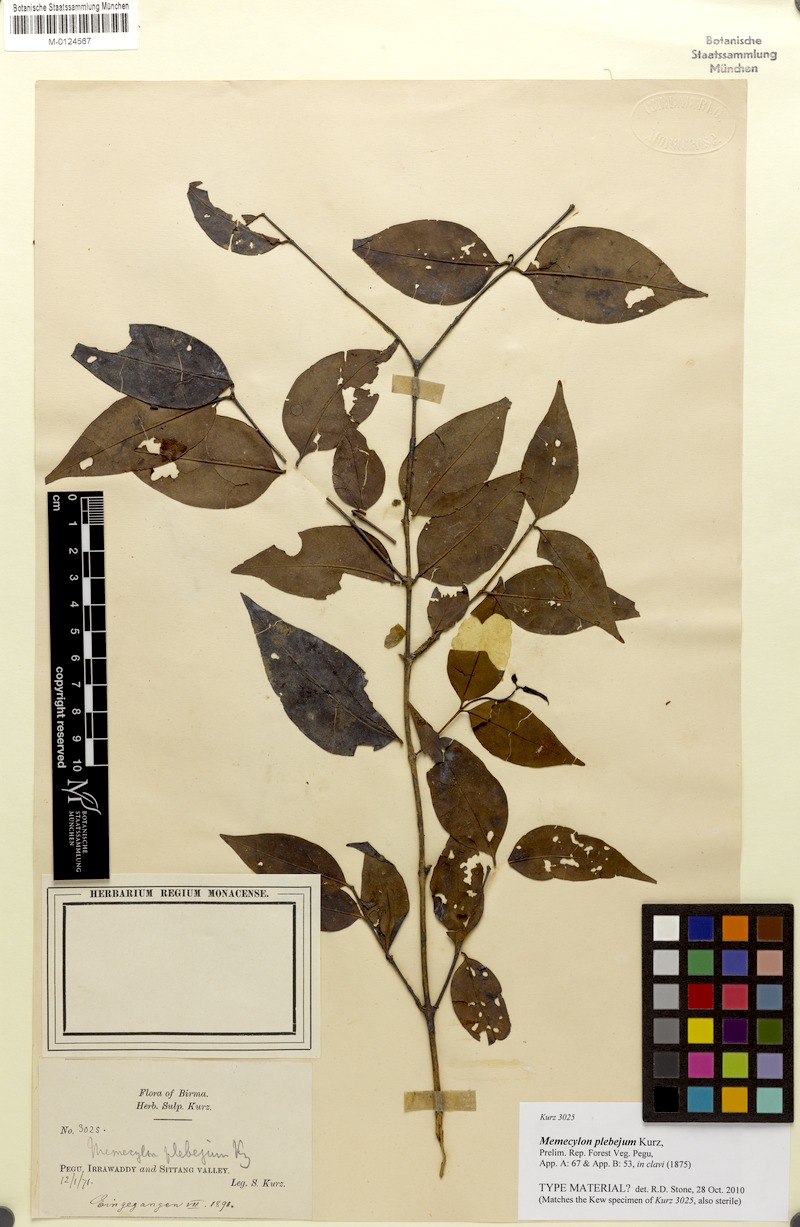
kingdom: Plantae
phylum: Tracheophyta
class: Magnoliopsida
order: Myrtales
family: Melastomataceae
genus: Memecylon
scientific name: Memecylon plebejum
